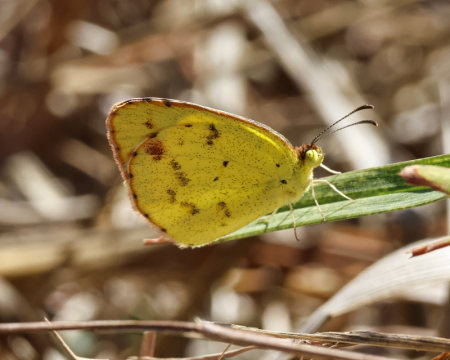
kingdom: Animalia
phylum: Arthropoda
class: Insecta
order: Lepidoptera
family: Pieridae
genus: Pyrisitia
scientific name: Pyrisitia lisa
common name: Little Yellow
